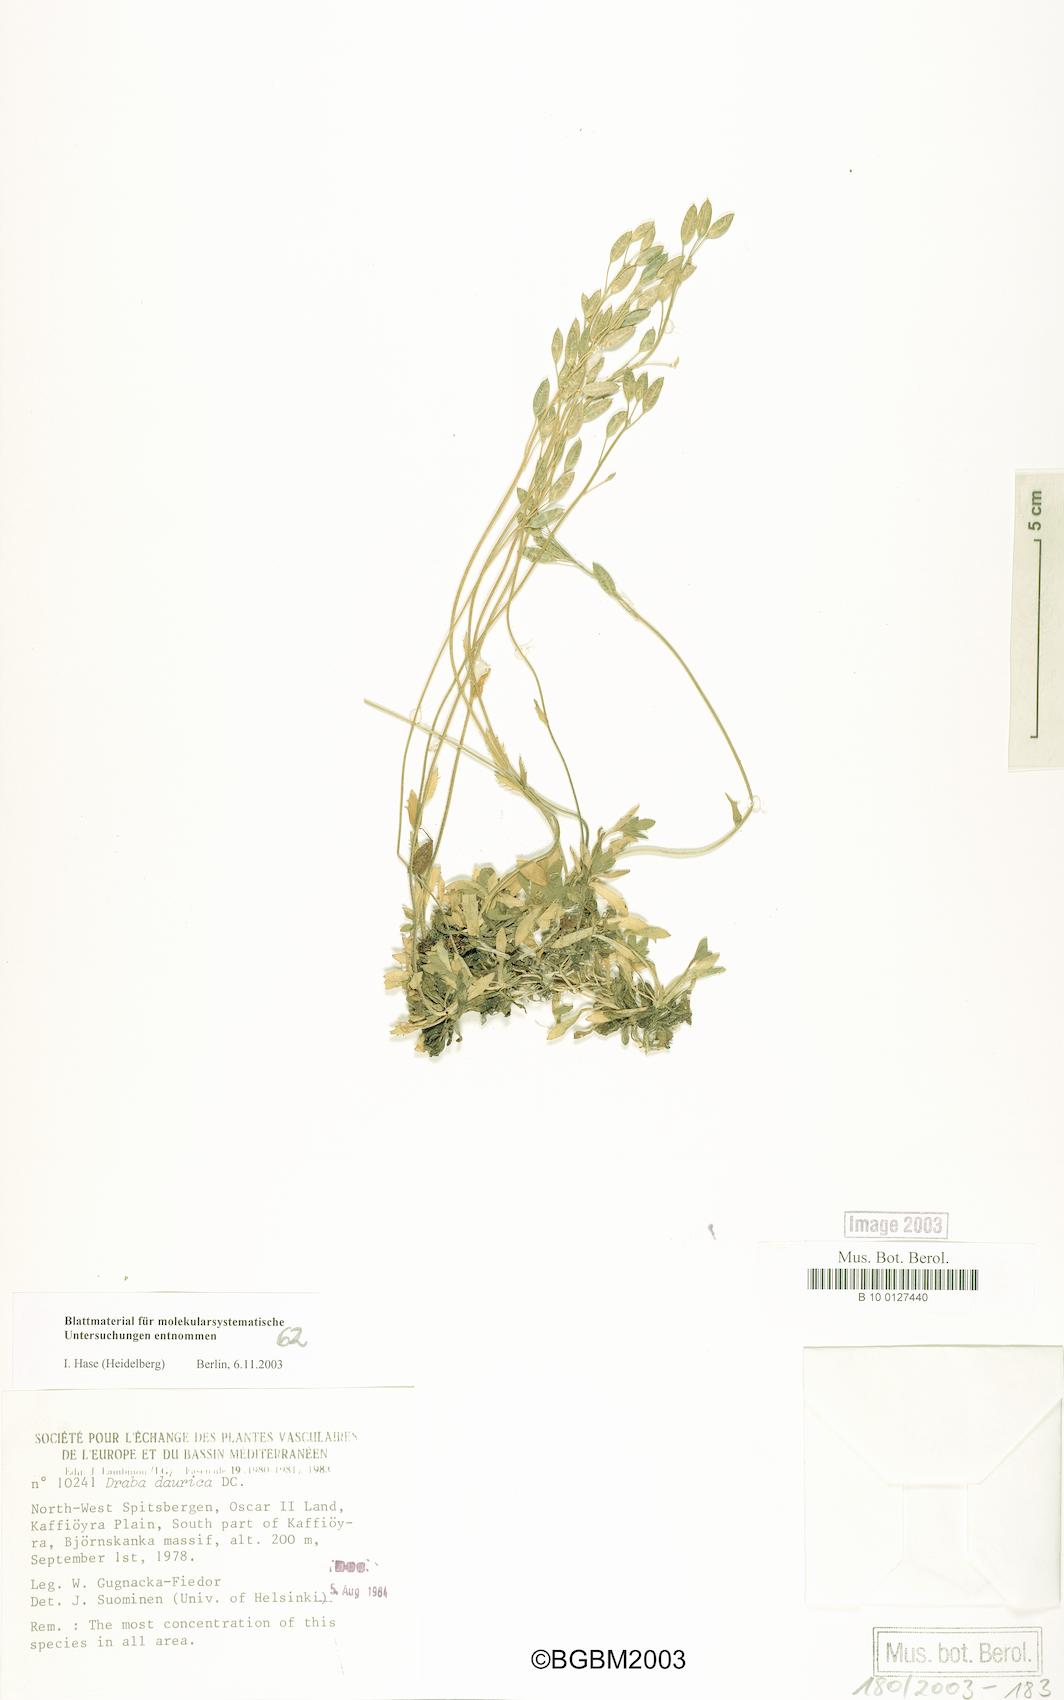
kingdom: Plantae
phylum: Tracheophyta
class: Magnoliopsida
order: Brassicales
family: Brassicaceae
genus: Draba
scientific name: Draba glabella
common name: Glaucous draba
